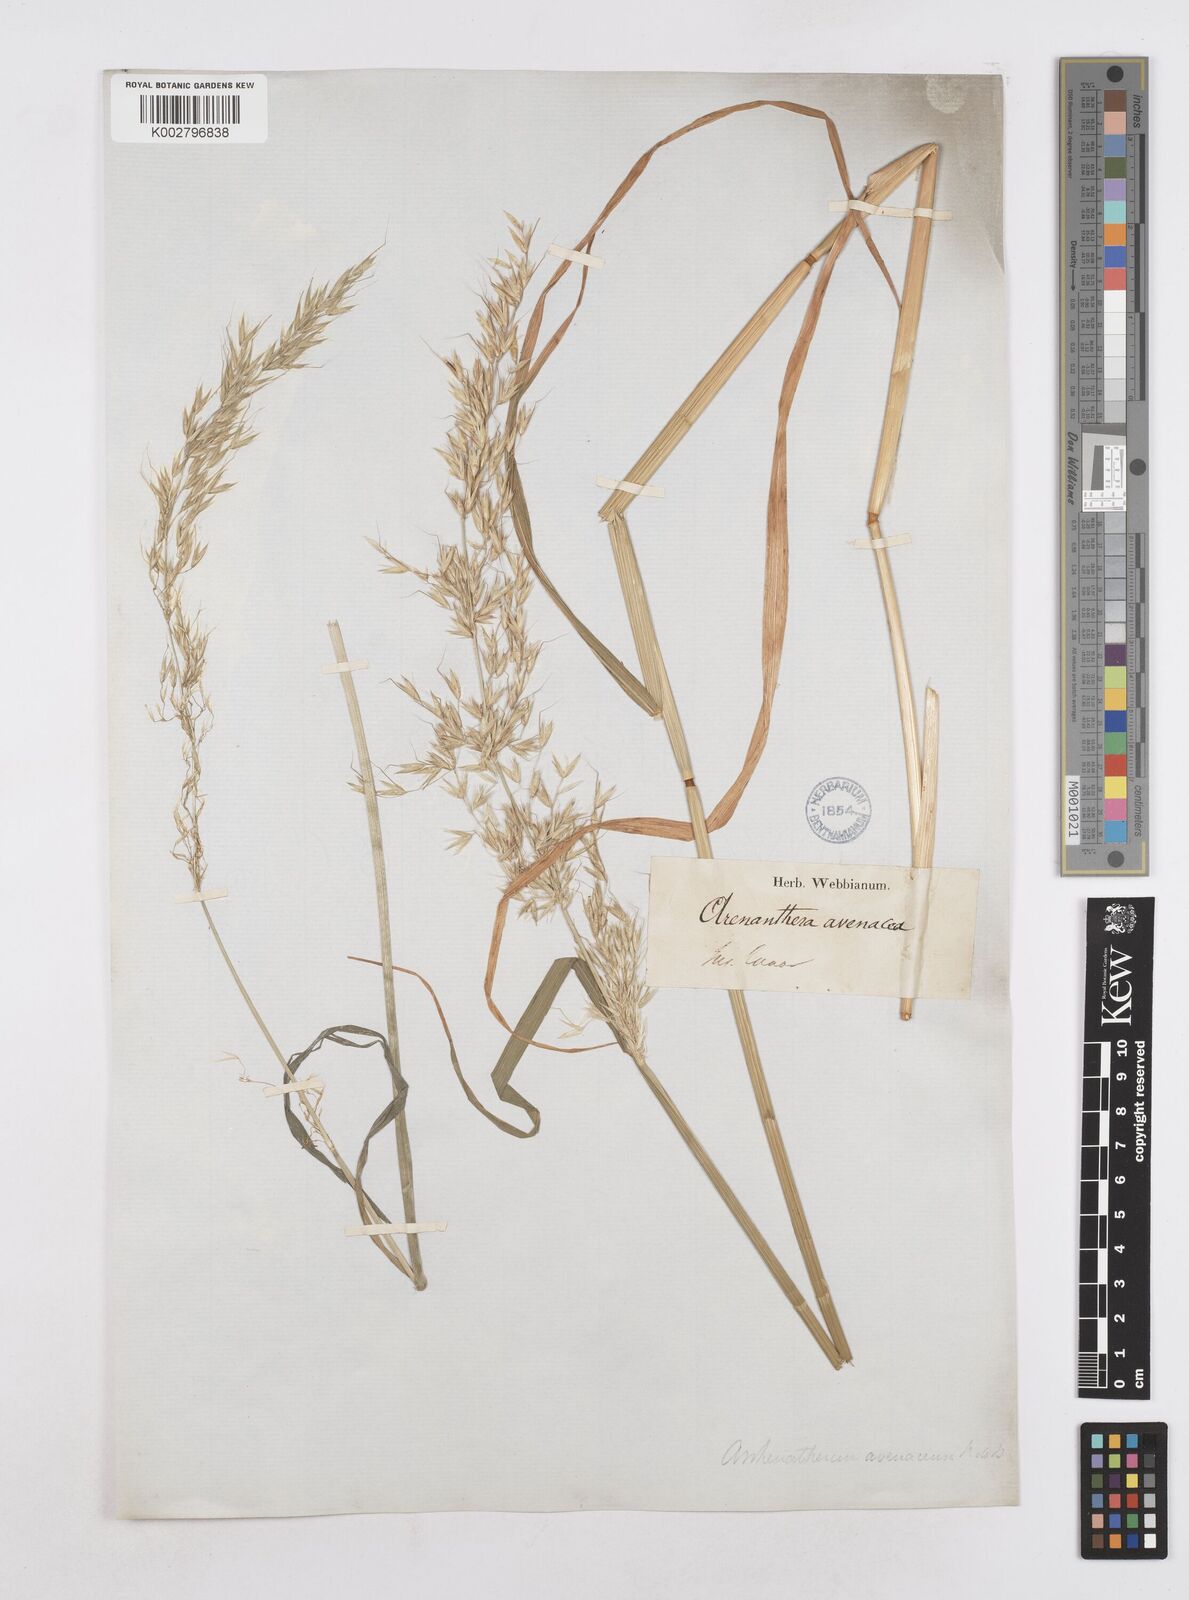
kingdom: Plantae
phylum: Tracheophyta
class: Liliopsida
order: Poales
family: Poaceae
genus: Arrhenatherum
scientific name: Arrhenatherum elatius
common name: Tall oatgrass
